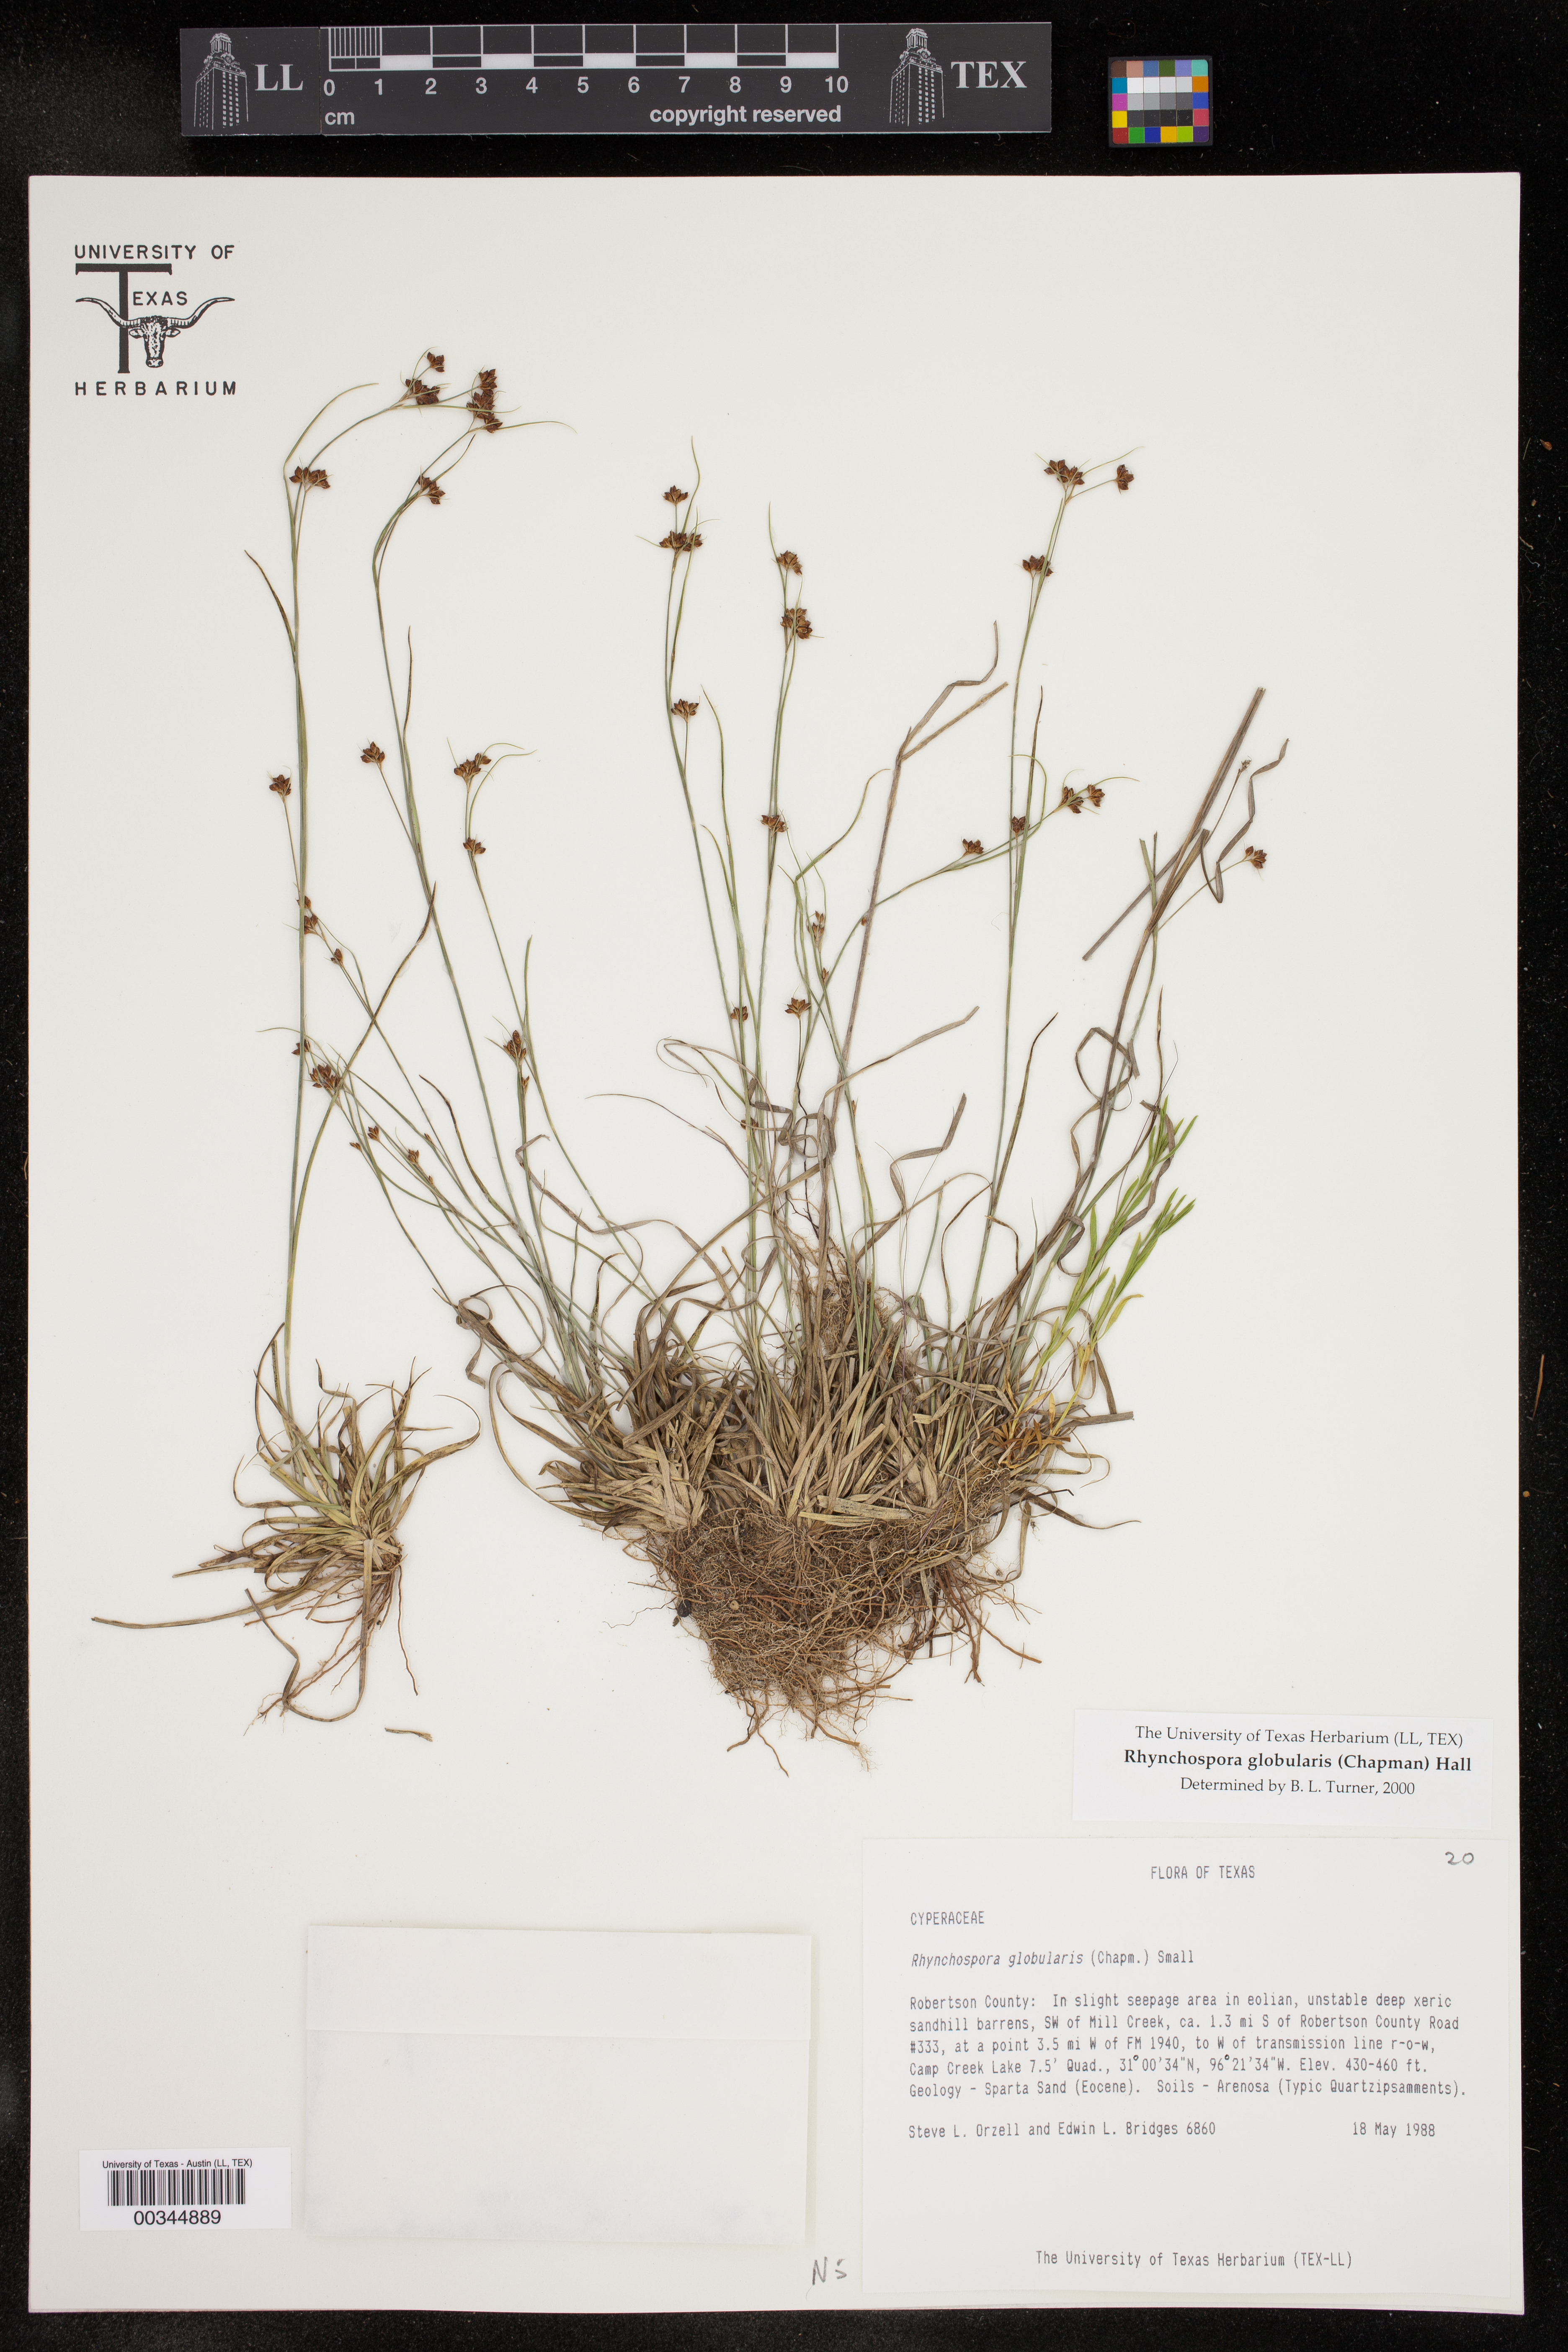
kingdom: Plantae
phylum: Tracheophyta
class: Liliopsida
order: Poales
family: Cyperaceae
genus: Rhynchospora
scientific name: Rhynchospora globularis
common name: Globe beaksedge
